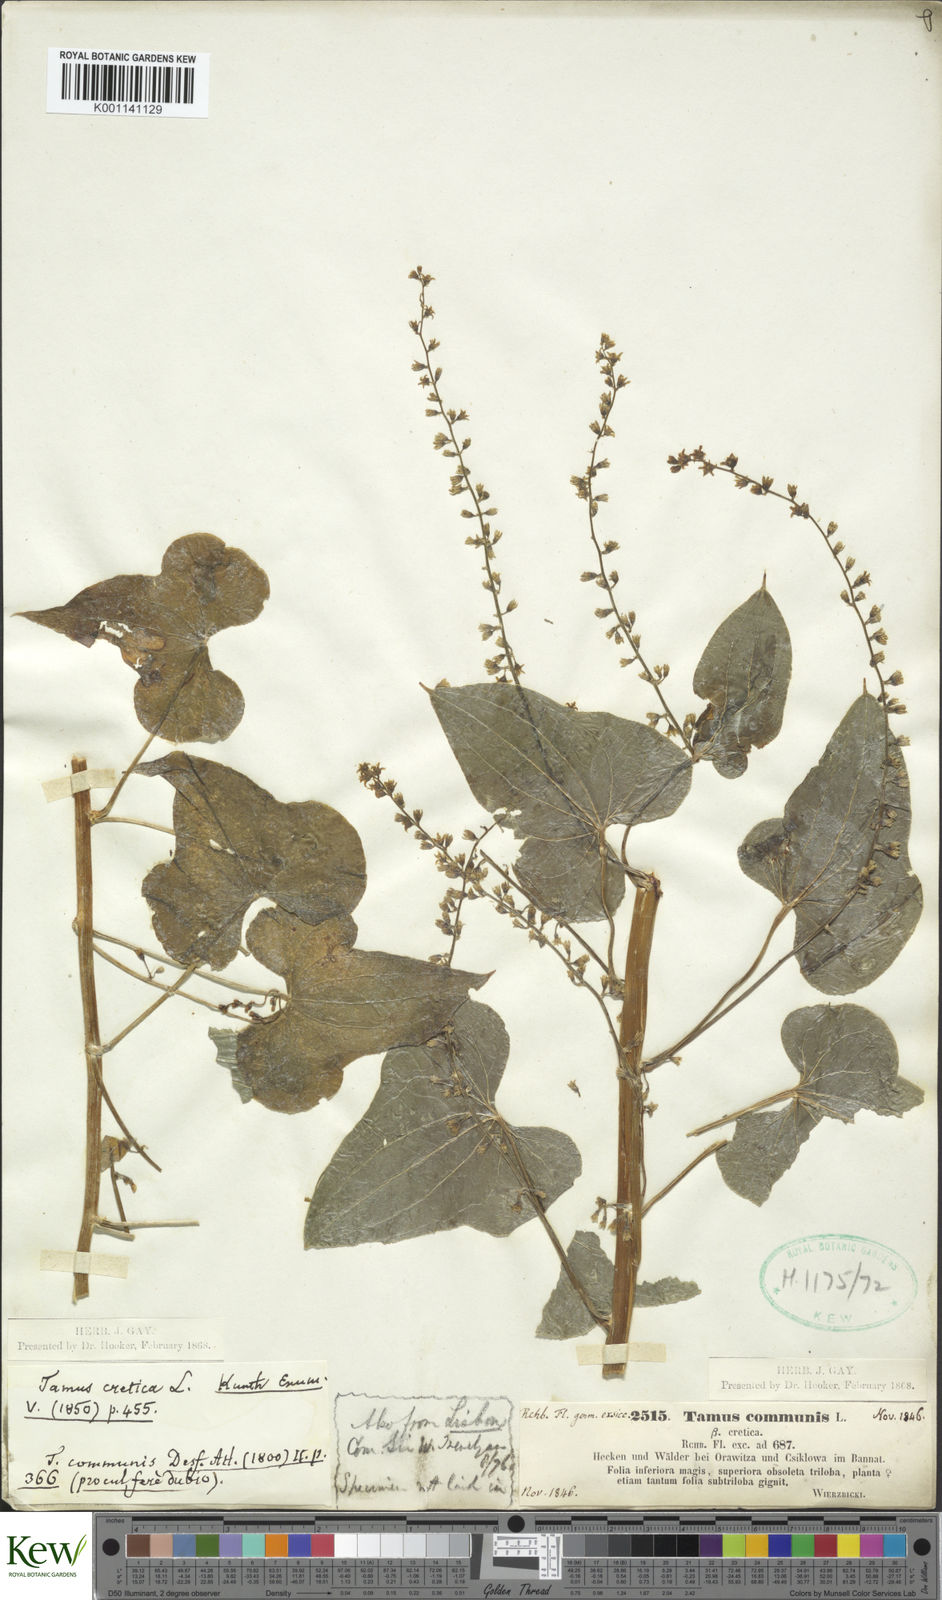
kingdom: Plantae
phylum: Tracheophyta
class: Liliopsida
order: Dioscoreales
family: Dioscoreaceae
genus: Dioscorea
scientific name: Dioscorea communis
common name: Black-bindweed
